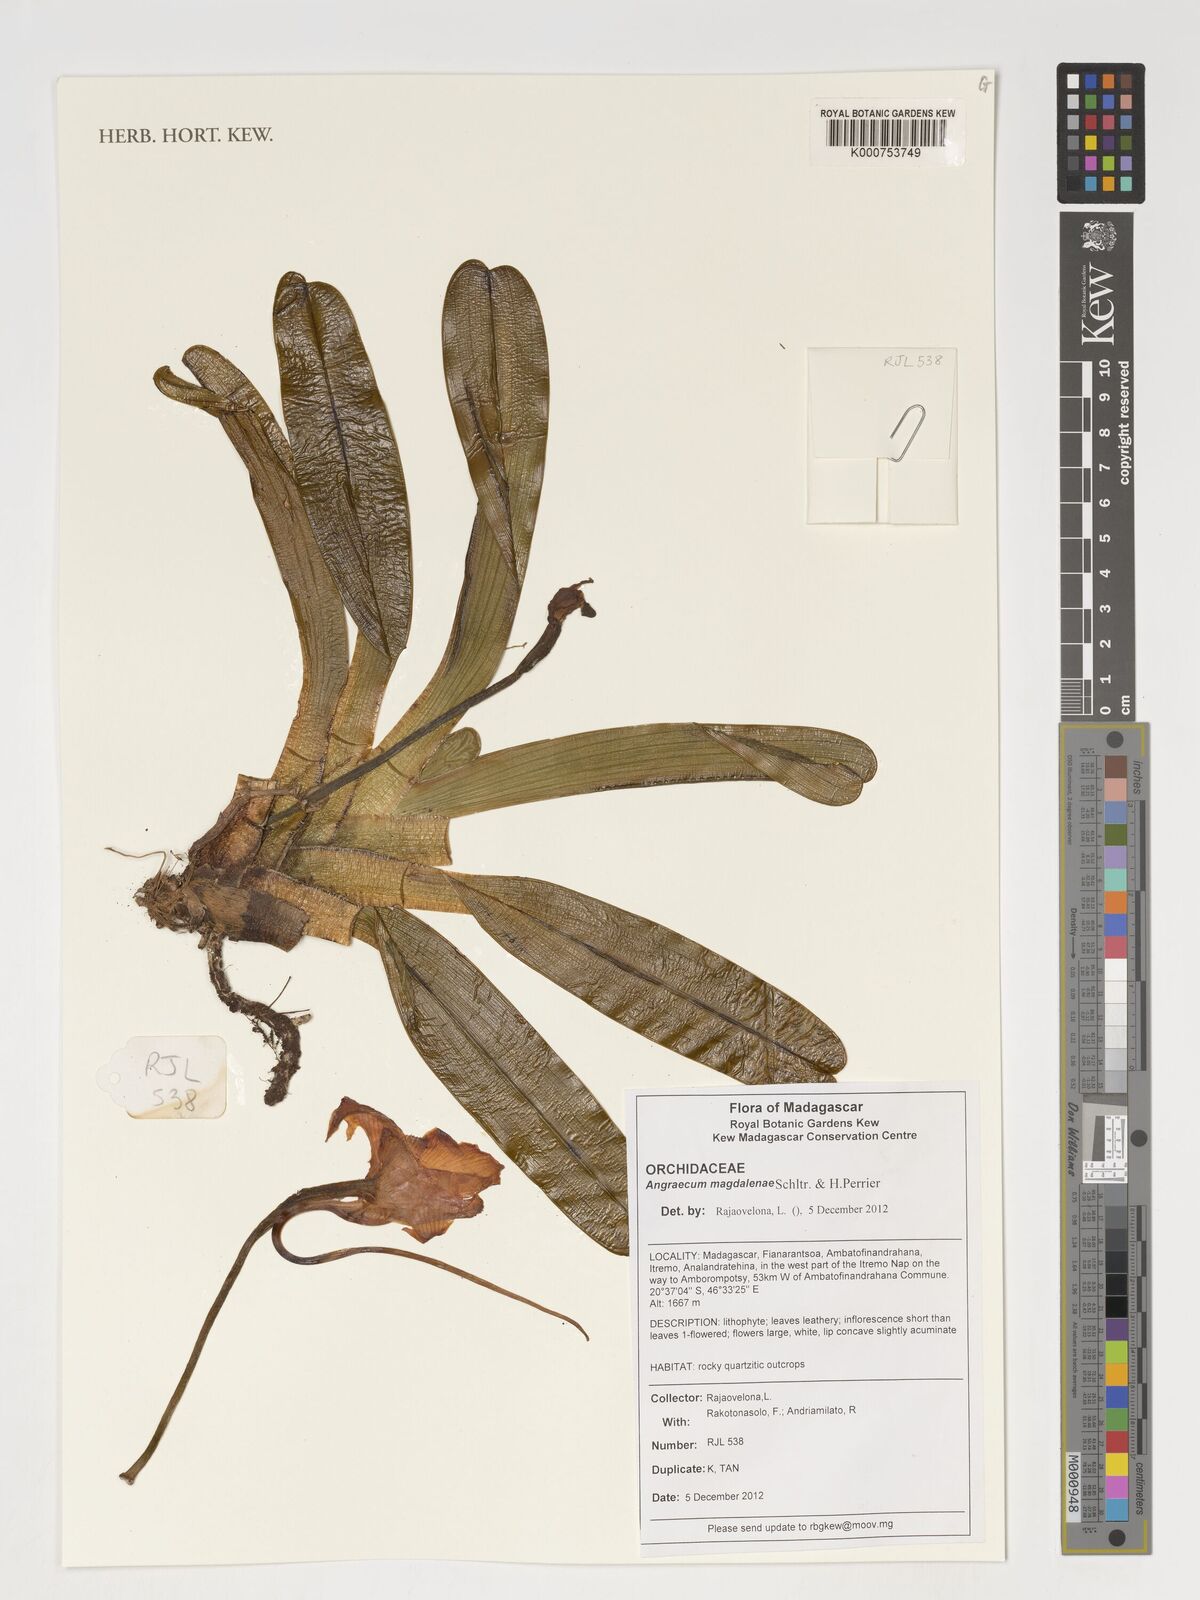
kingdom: Plantae
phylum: Tracheophyta
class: Liliopsida
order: Asparagales
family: Orchidaceae
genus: Angraecum
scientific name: Angraecum magdalenae
